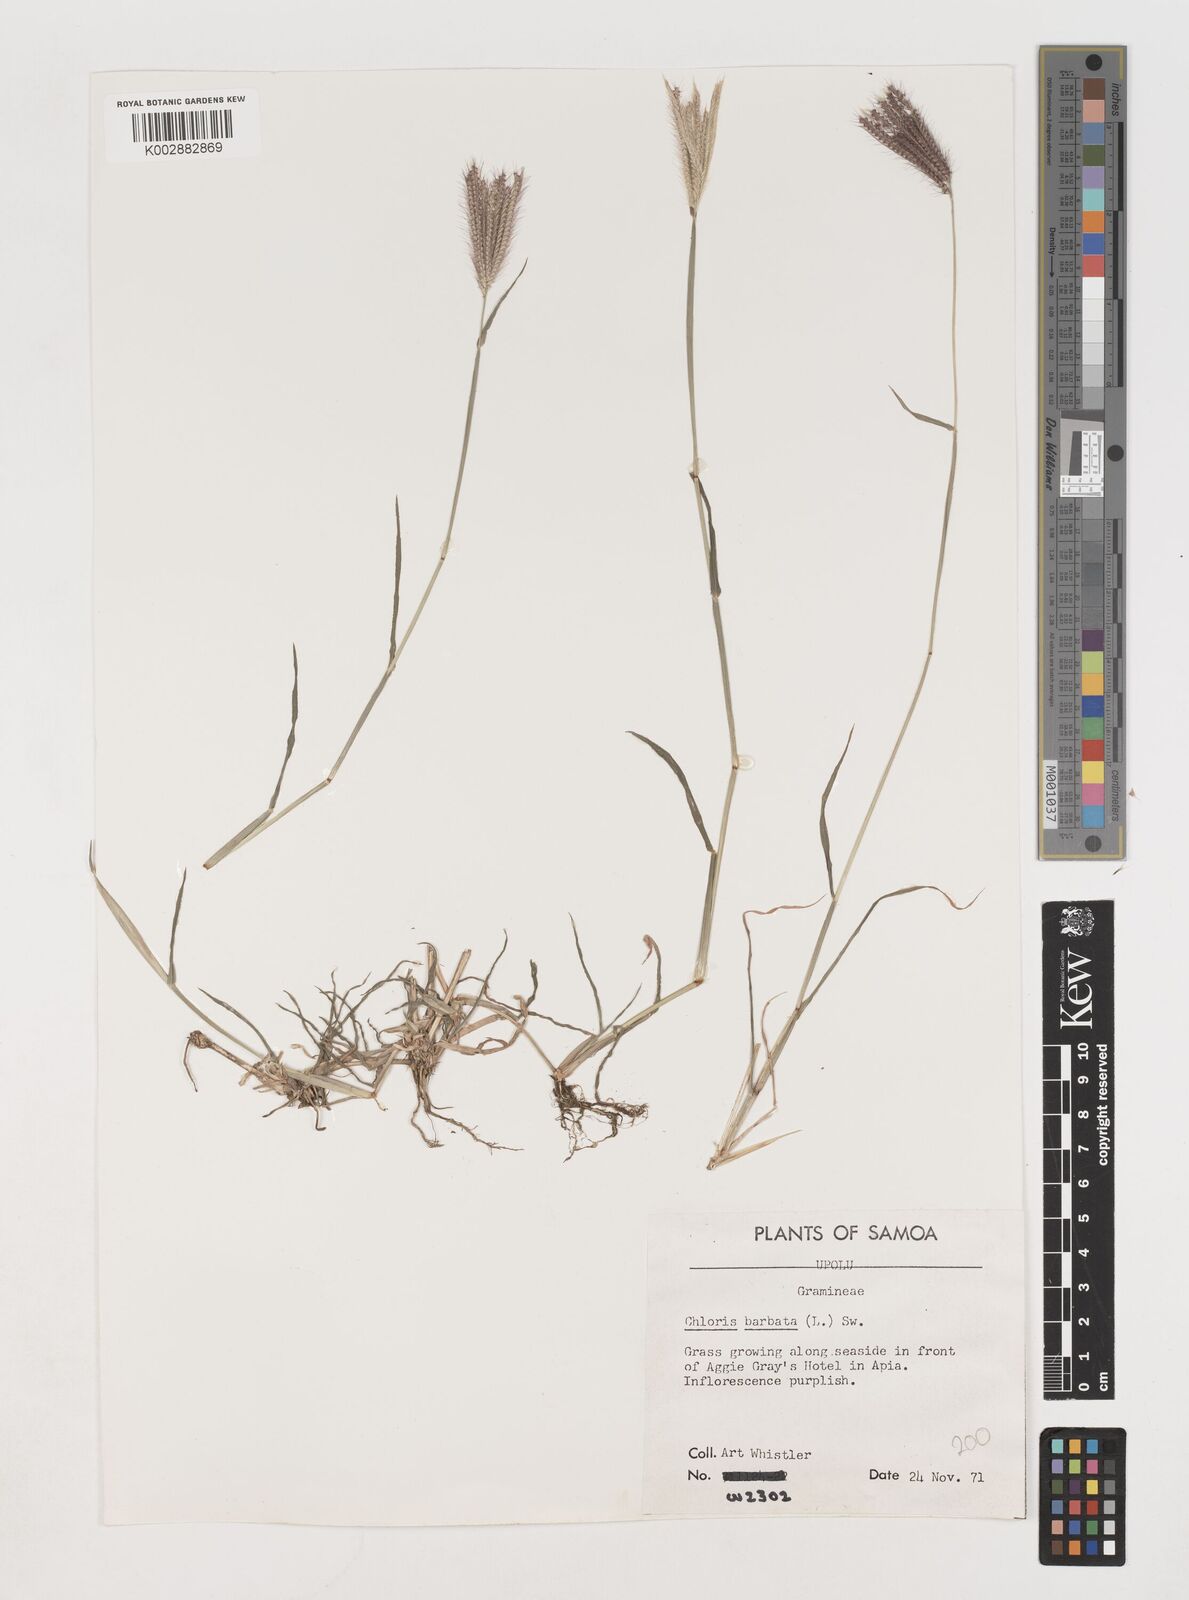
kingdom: Plantae
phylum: Tracheophyta
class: Liliopsida
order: Poales
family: Poaceae
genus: Chloris
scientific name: Chloris barbata
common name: Swollen fingergrass
